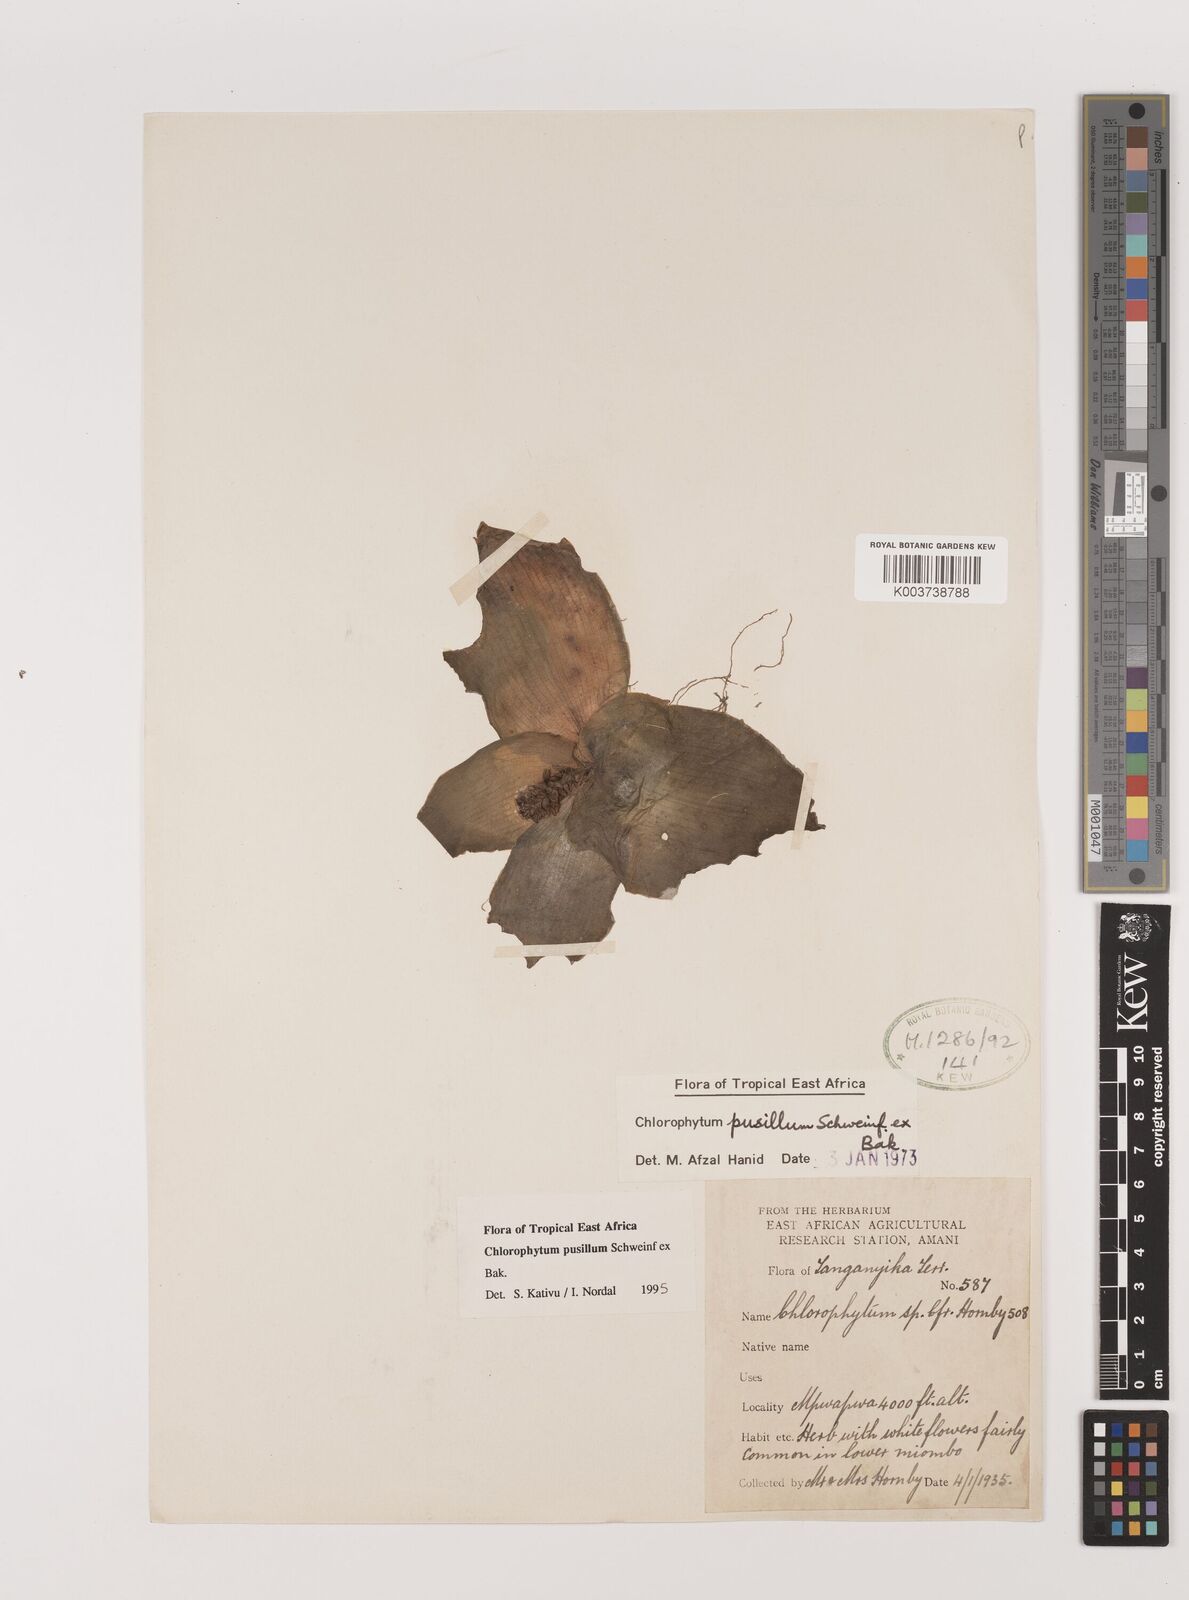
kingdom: Plantae
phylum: Tracheophyta
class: Liliopsida
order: Asparagales
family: Asparagaceae
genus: Chlorophytum
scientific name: Chlorophytum pusillum
